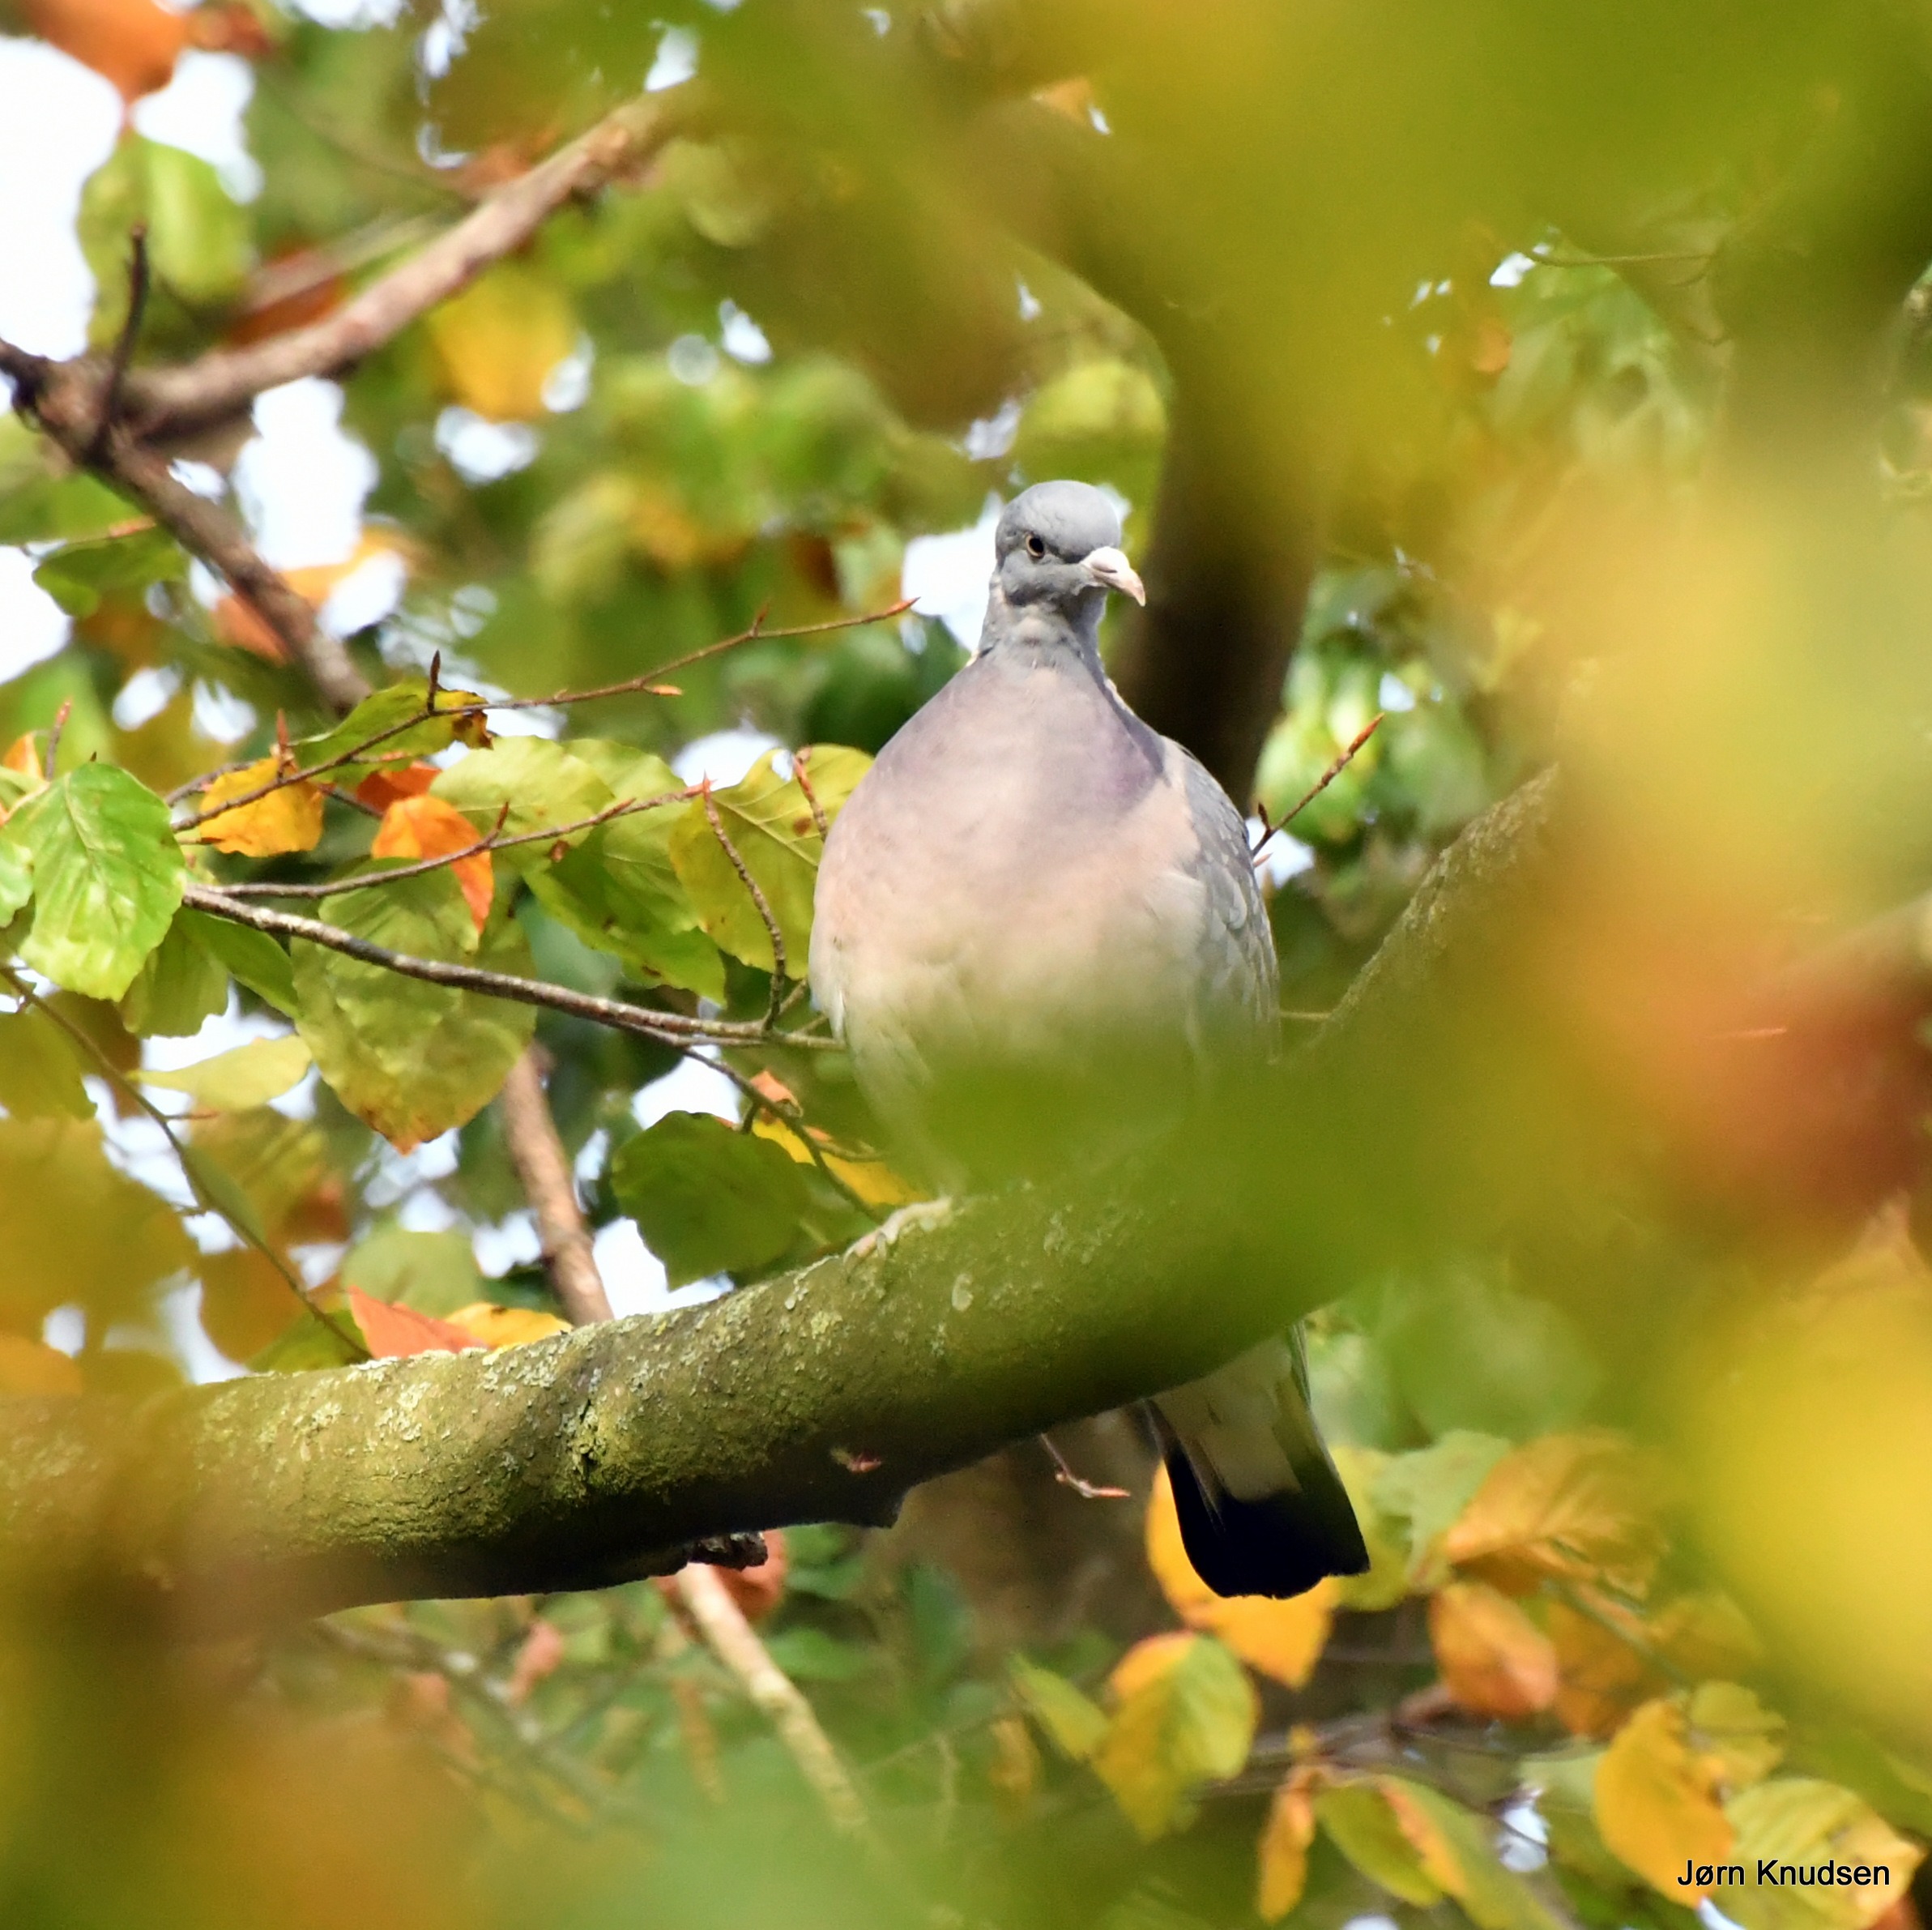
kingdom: Animalia
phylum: Chordata
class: Aves
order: Columbiformes
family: Columbidae
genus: Columba
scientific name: Columba palumbus
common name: Ringdue
